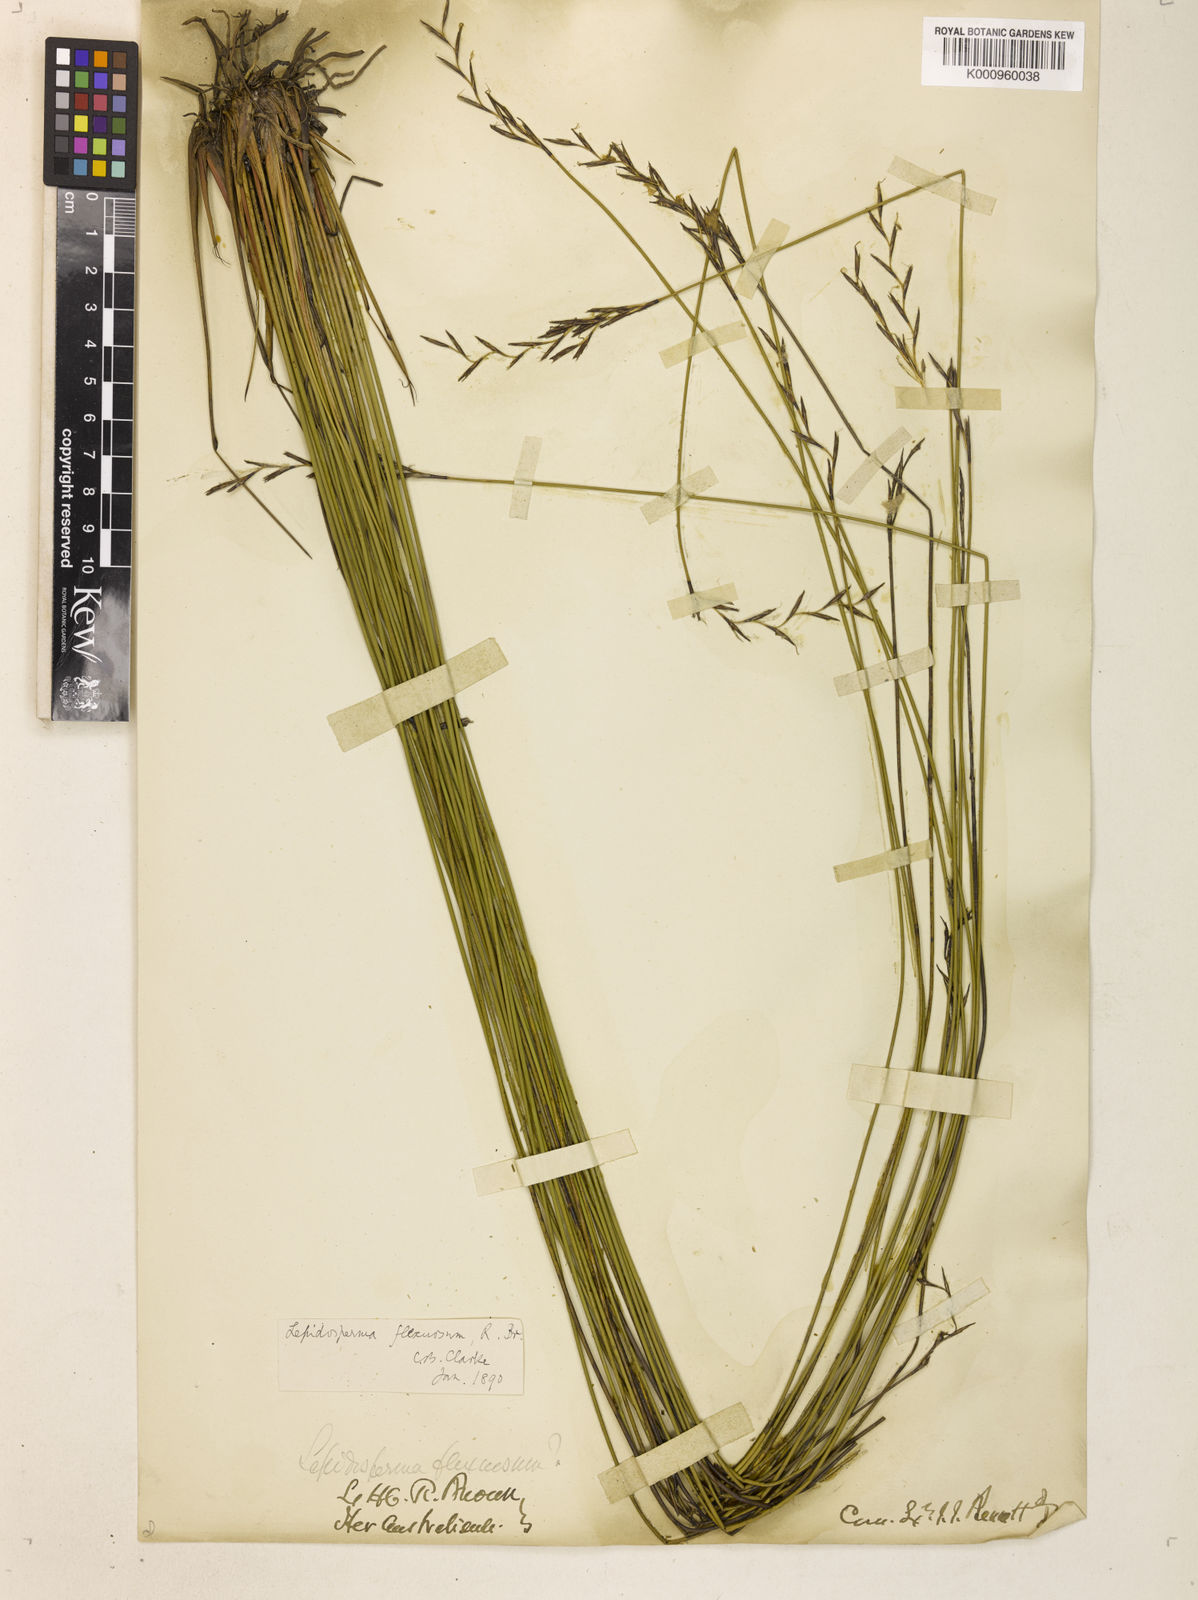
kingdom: Plantae
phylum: Tracheophyta
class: Liliopsida
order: Poales
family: Cyperaceae
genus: Lepidosperma
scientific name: Lepidosperma flexuosum
